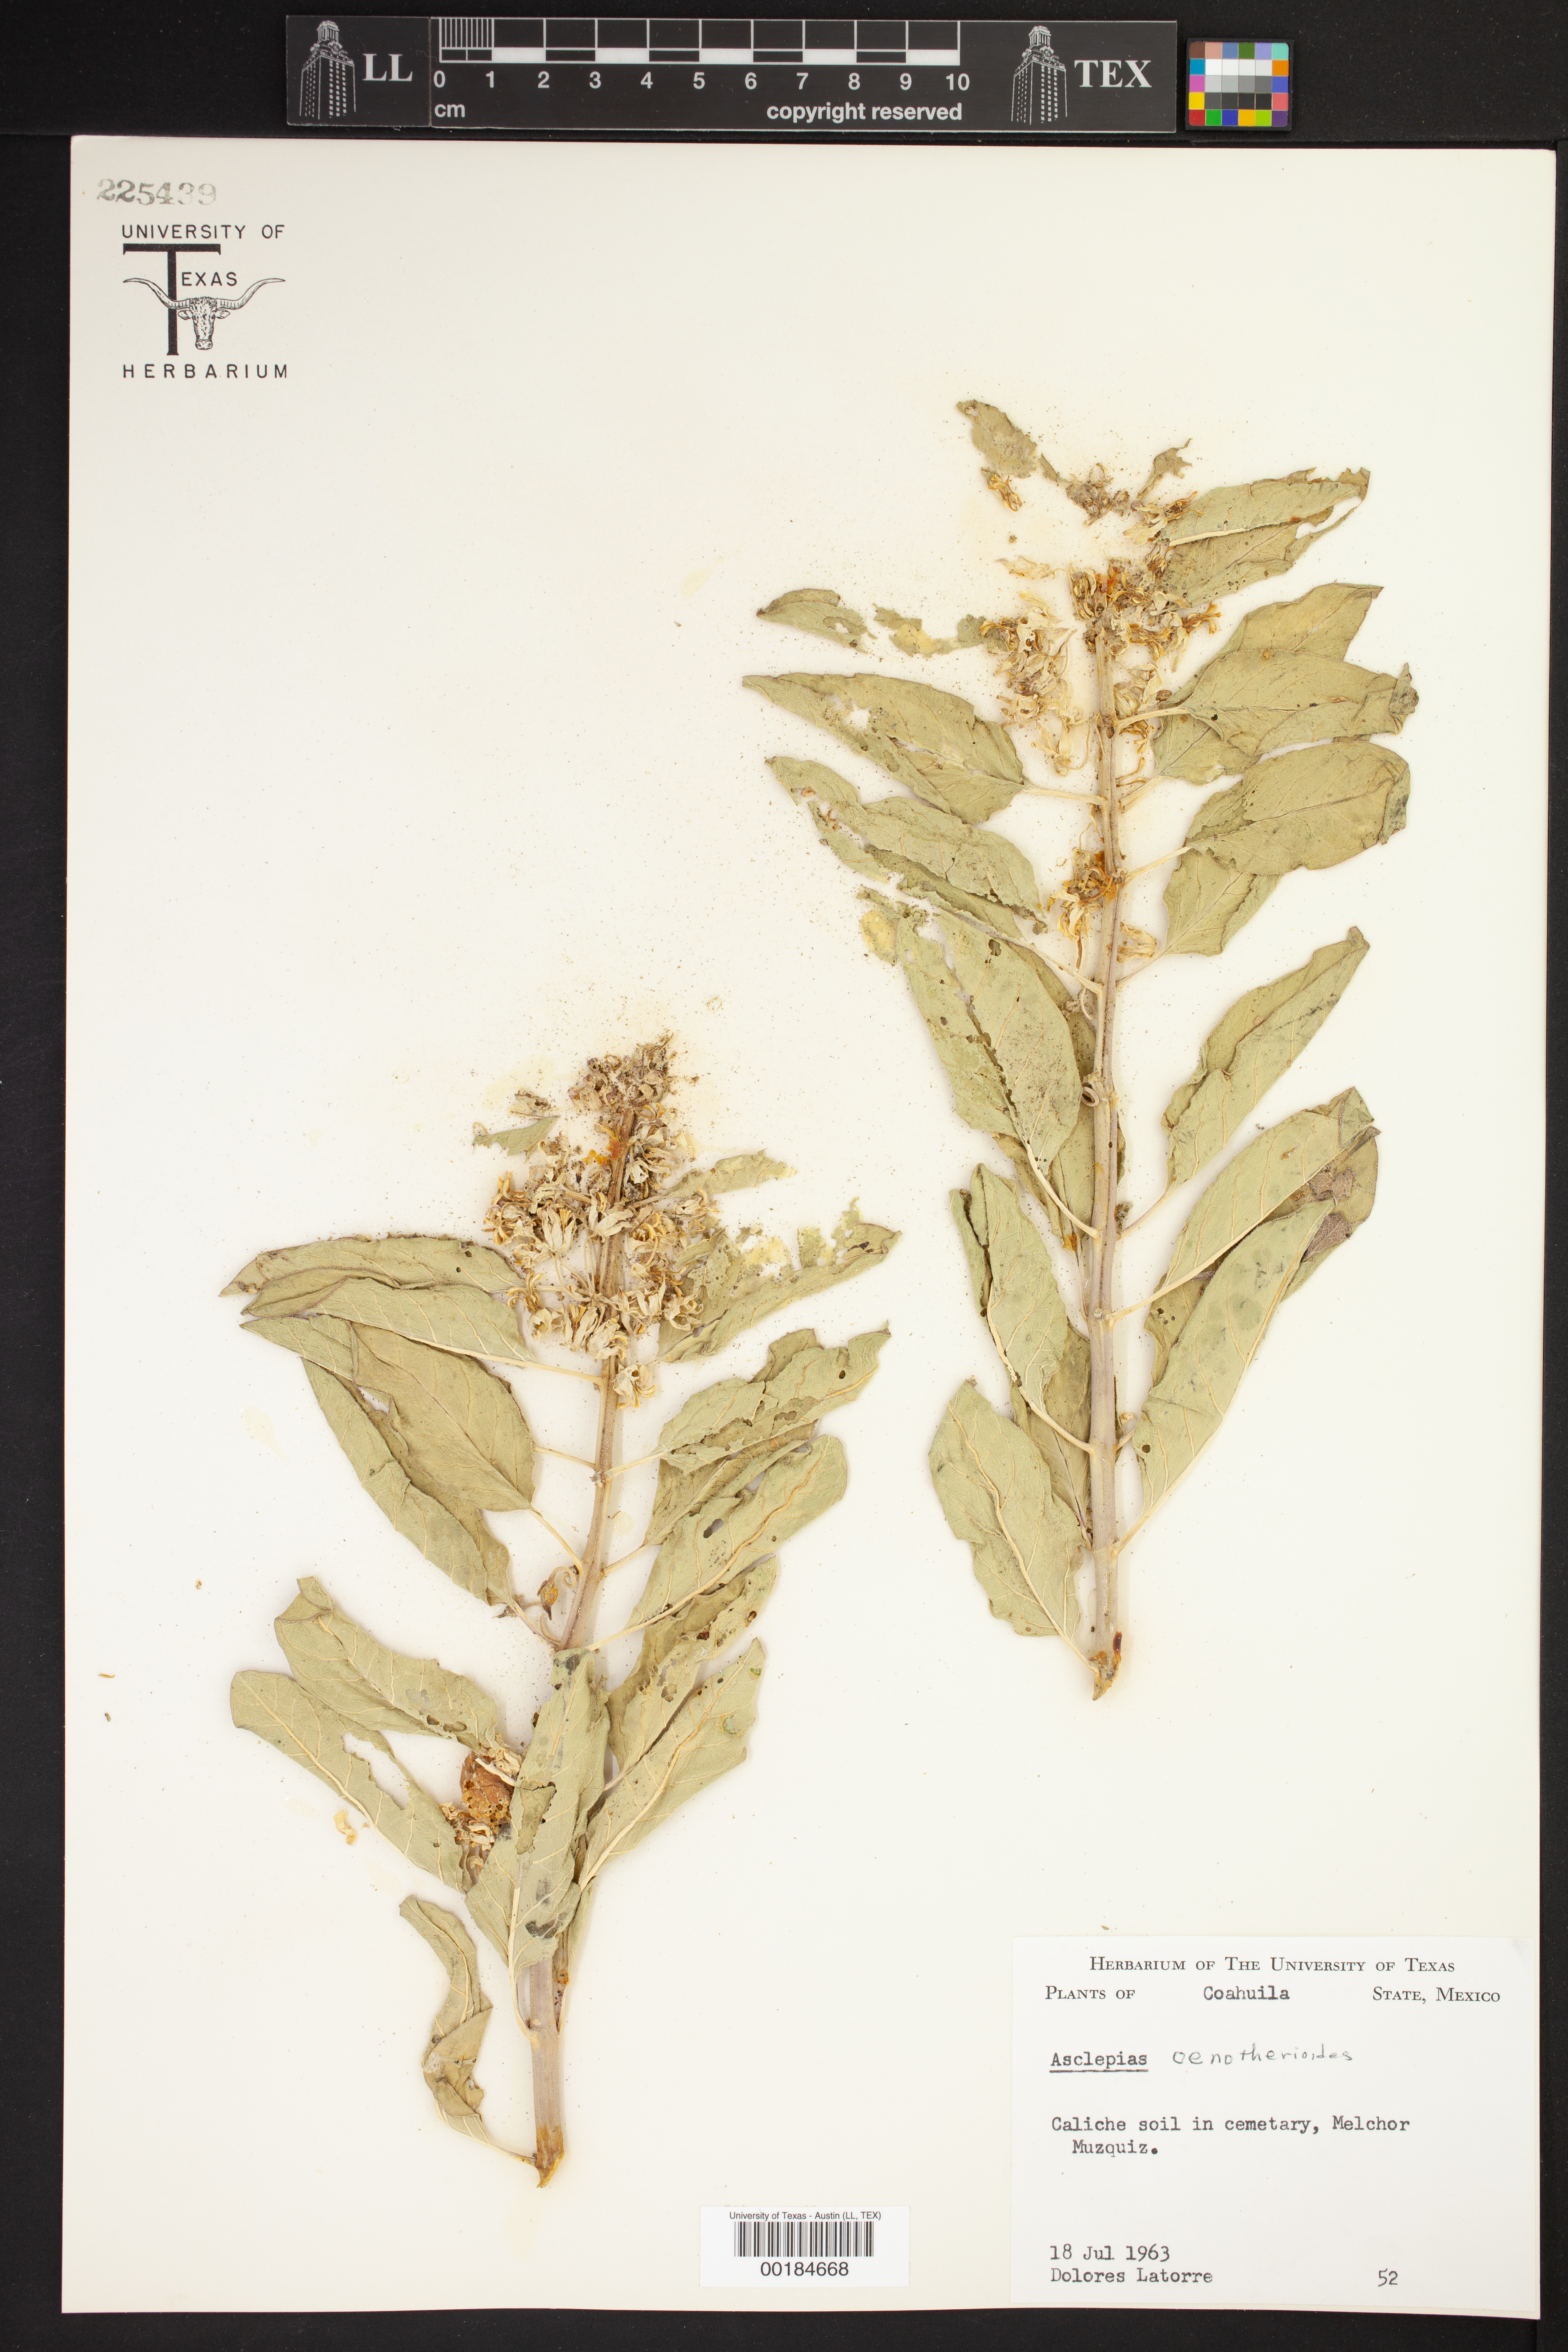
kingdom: Plantae
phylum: Tracheophyta
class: Magnoliopsida
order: Gentianales
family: Apocynaceae
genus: Asclepias
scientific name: Asclepias oenotheroides
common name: Zizotes milkweed
